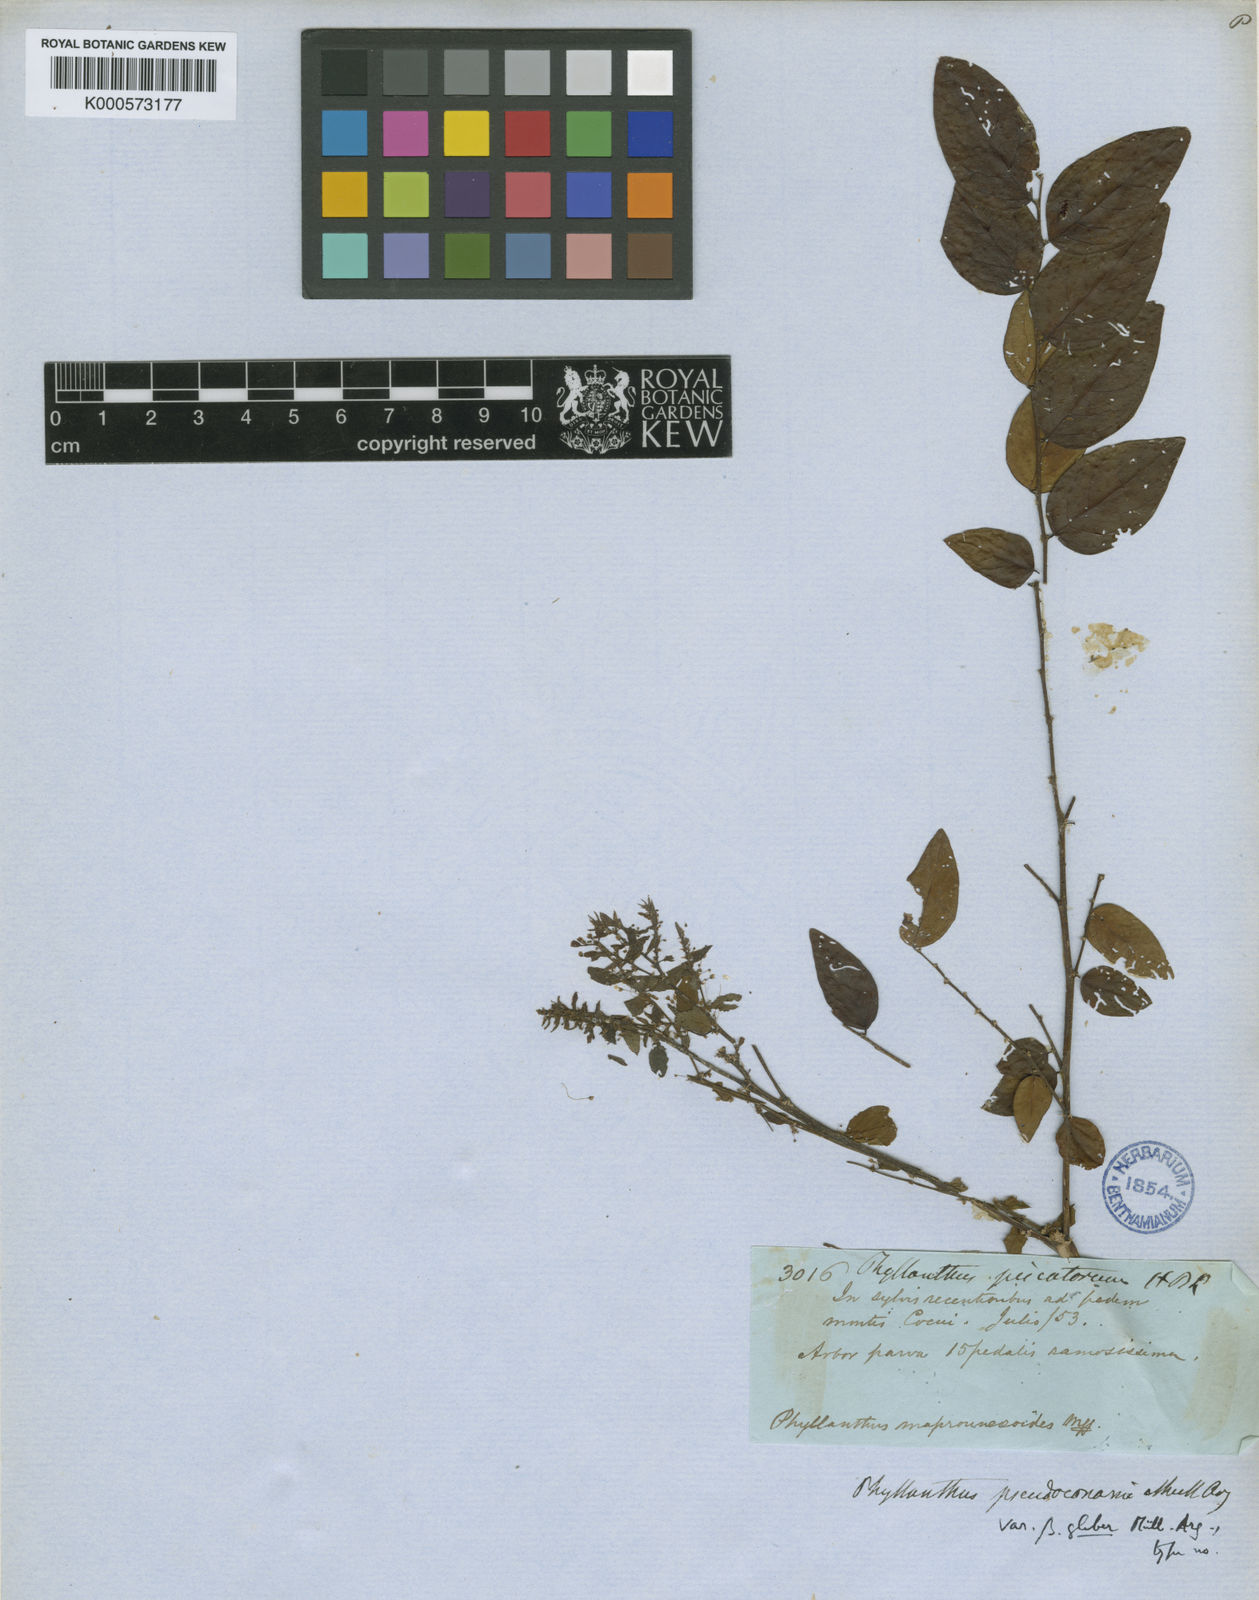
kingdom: Plantae
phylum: Tracheophyta
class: Magnoliopsida
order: Malpighiales
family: Phyllanthaceae
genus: Phyllanthus
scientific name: Phyllanthus
